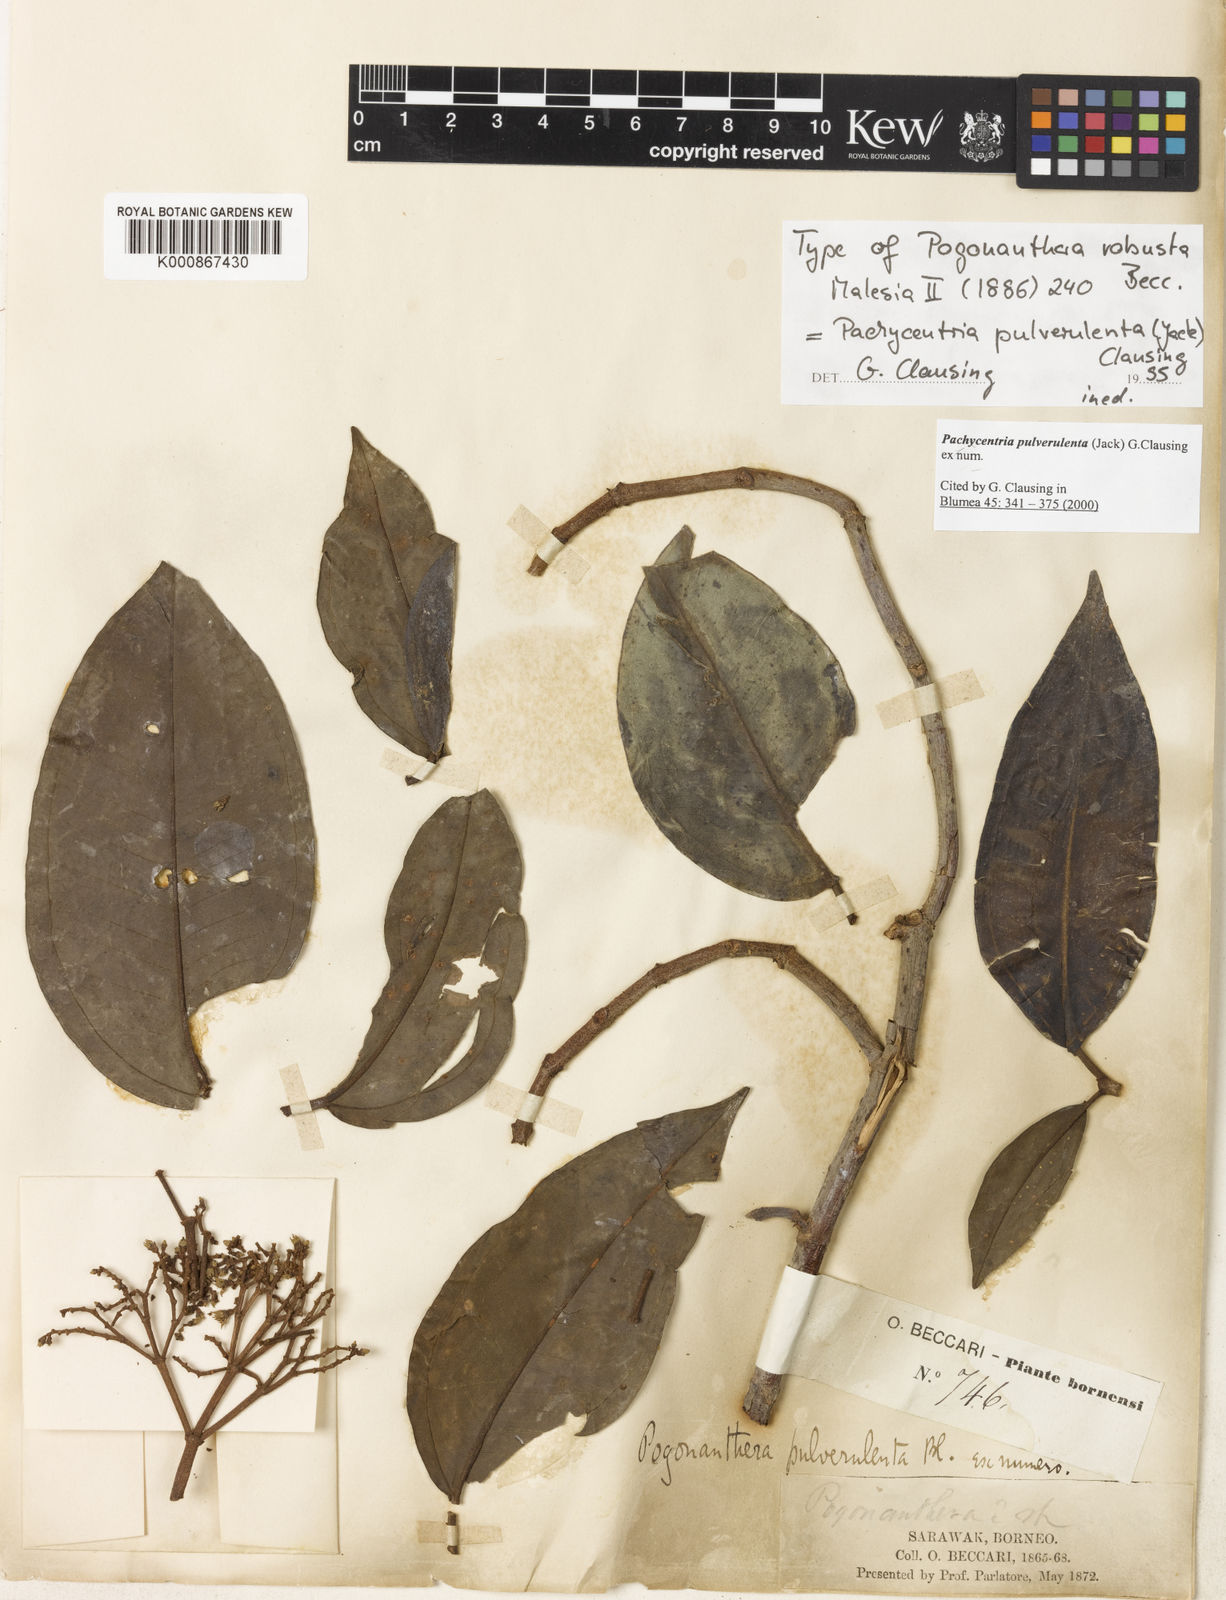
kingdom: Plantae
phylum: Tracheophyta
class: Magnoliopsida
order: Myrtales
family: Melastomataceae
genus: Pachycentria
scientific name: Pachycentria pulverulenta
